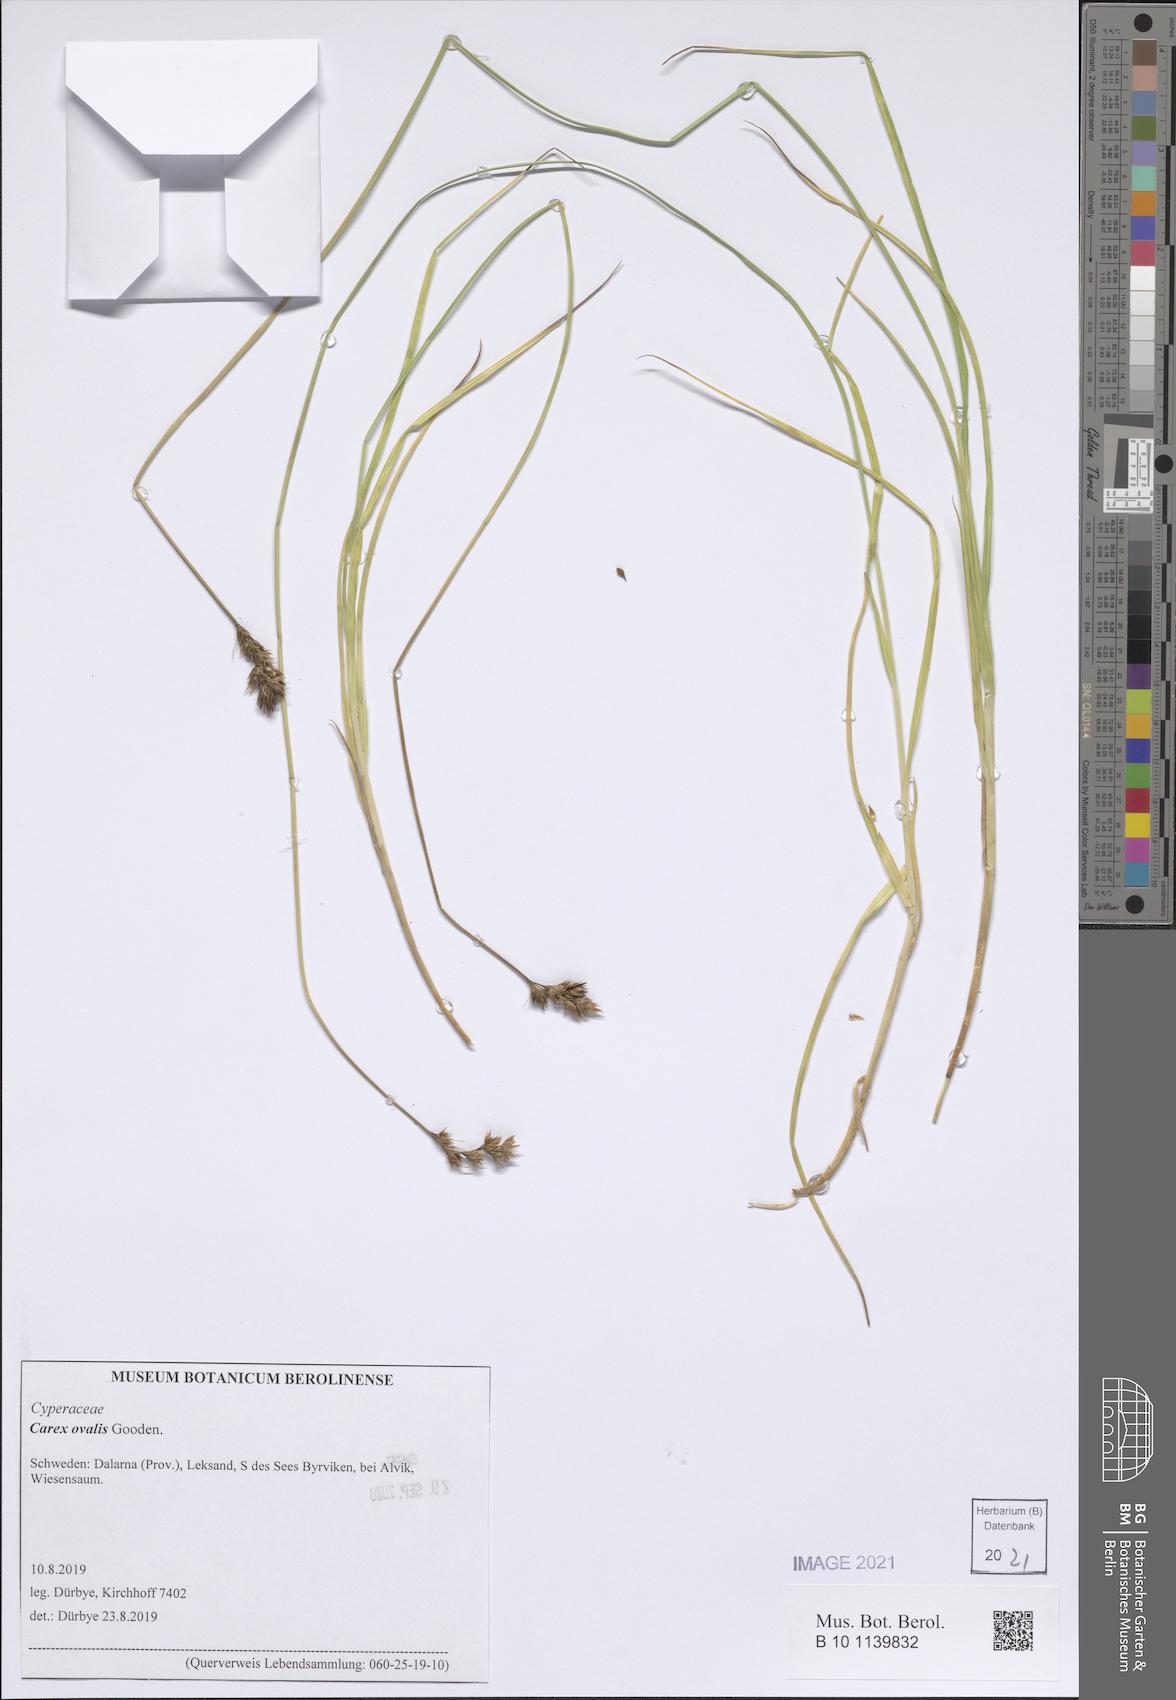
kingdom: Plantae
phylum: Tracheophyta
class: Liliopsida
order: Poales
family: Cyperaceae
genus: Carex
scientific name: Carex leporina
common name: Oval sedge
